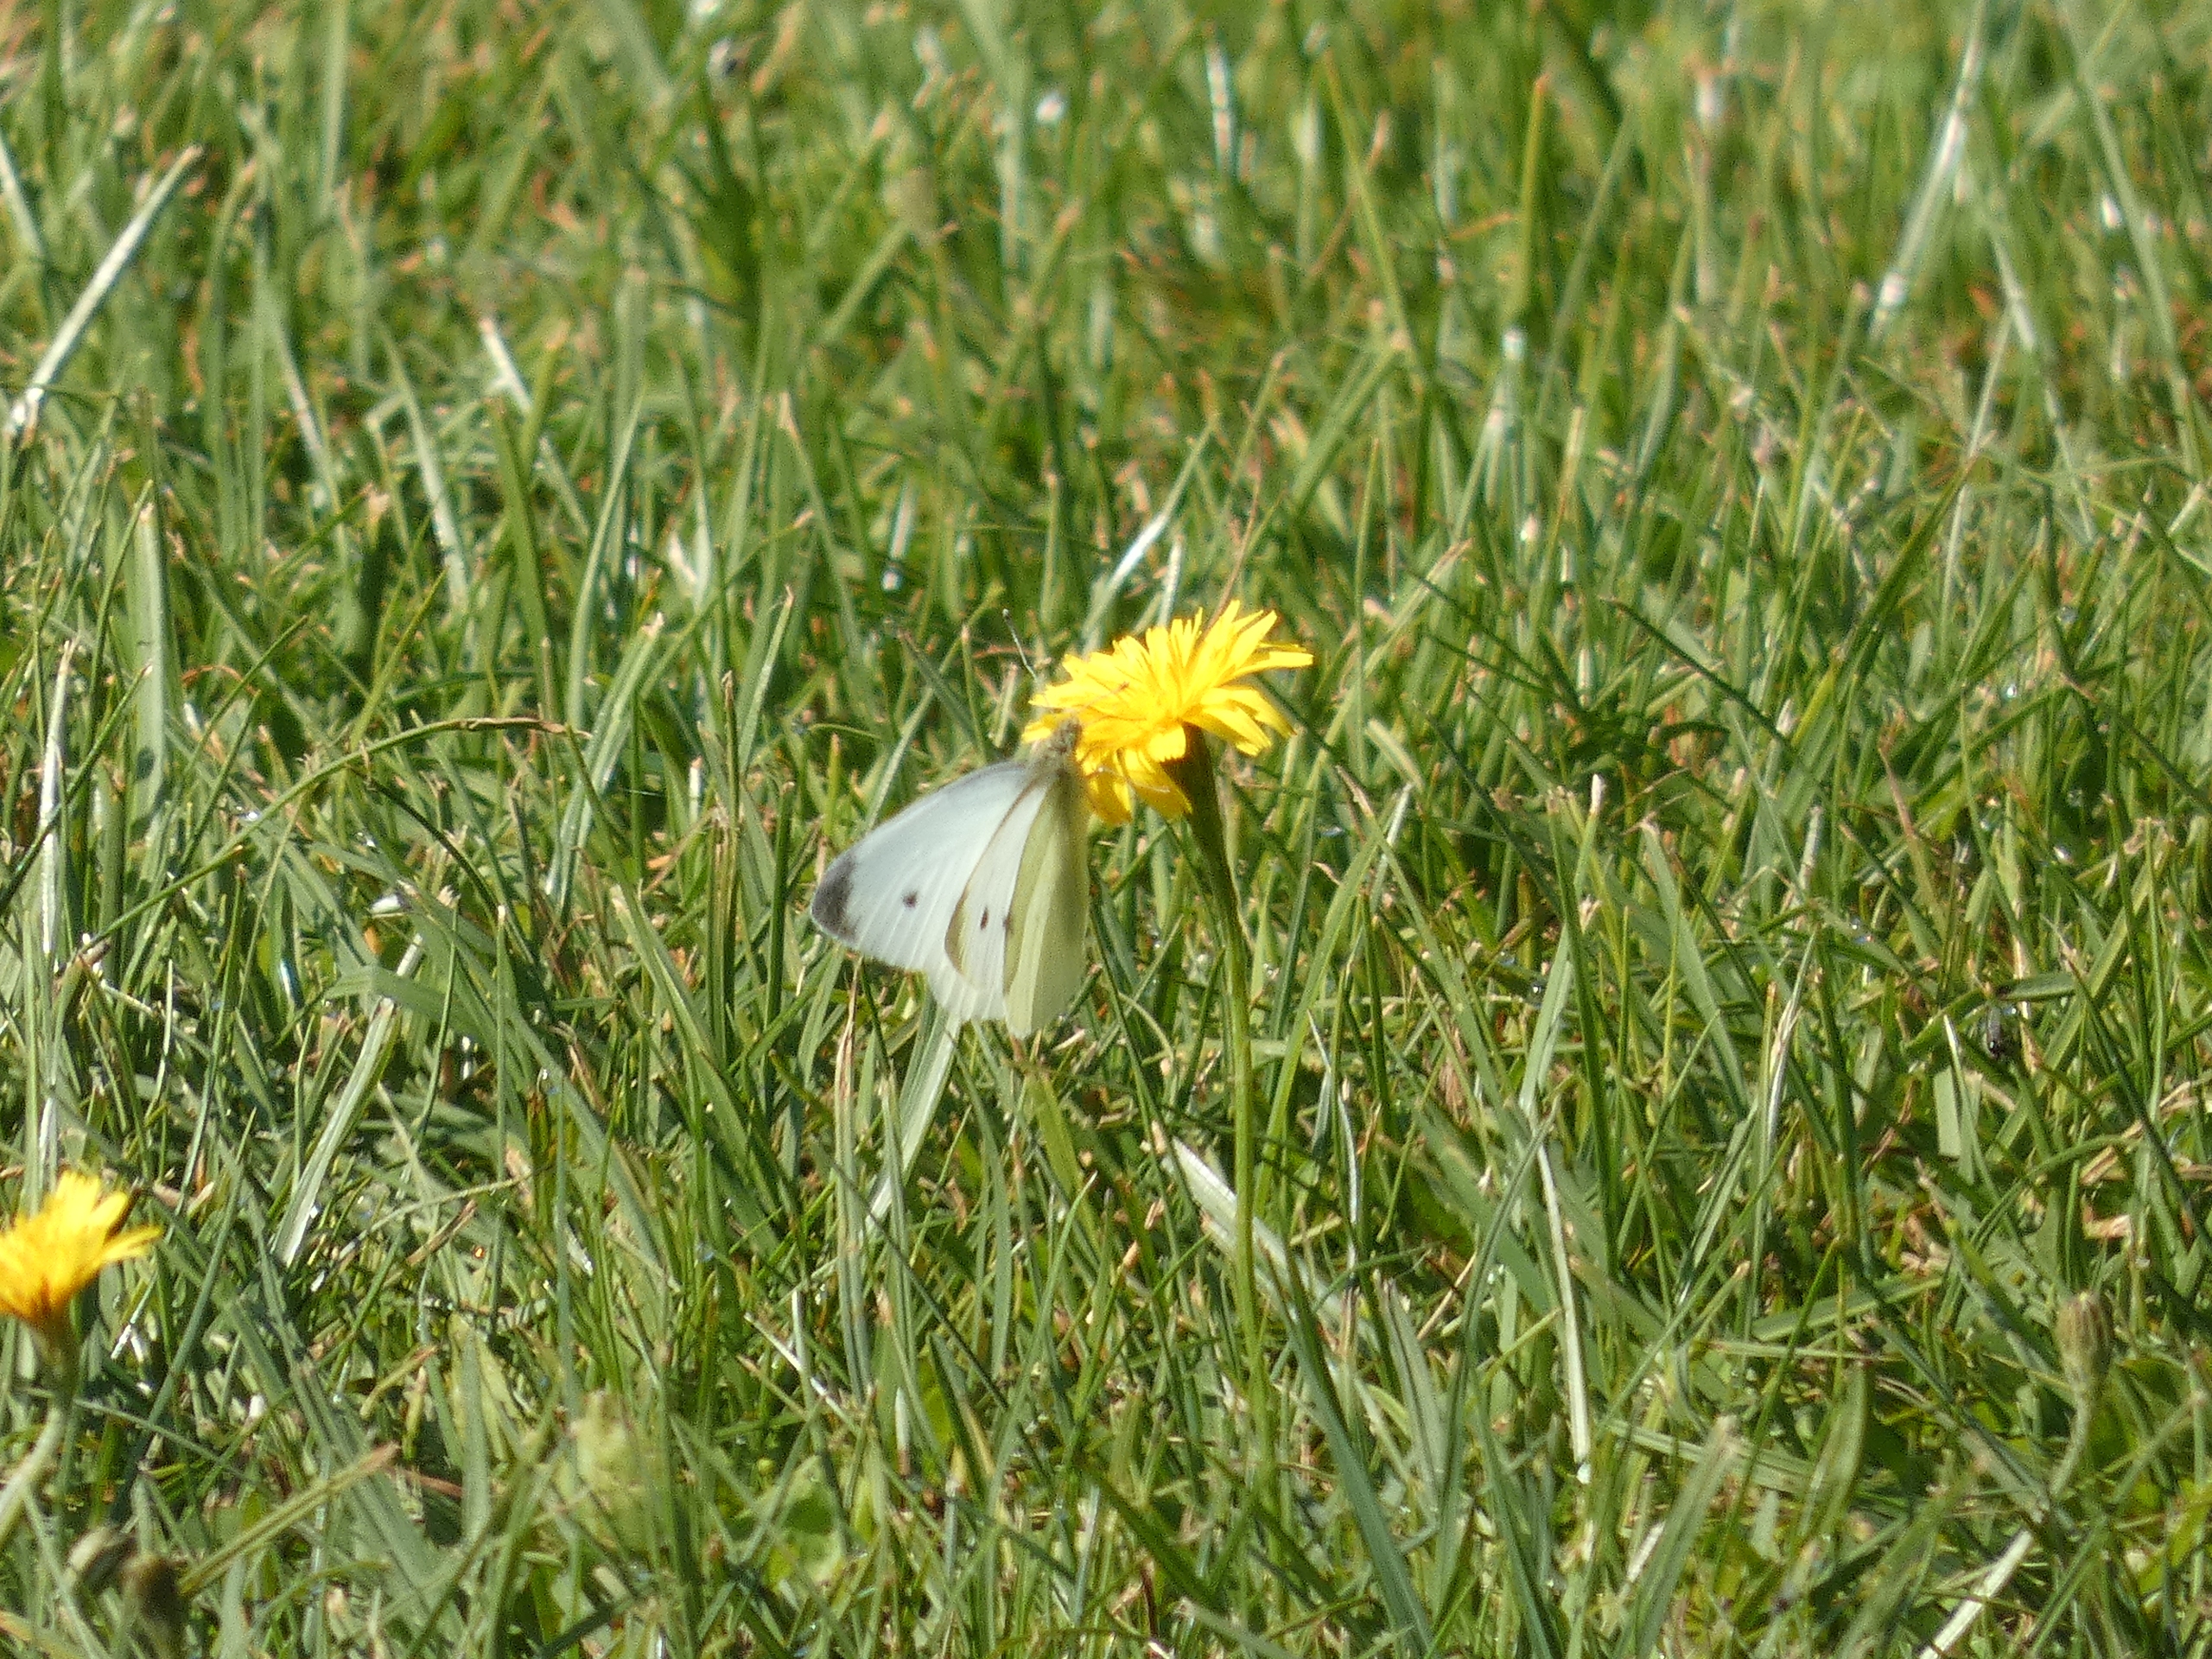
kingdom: Animalia
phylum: Arthropoda
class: Insecta
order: Lepidoptera
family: Pieridae
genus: Pieris
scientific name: Pieris rapae
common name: Lille kålsommerfugl
